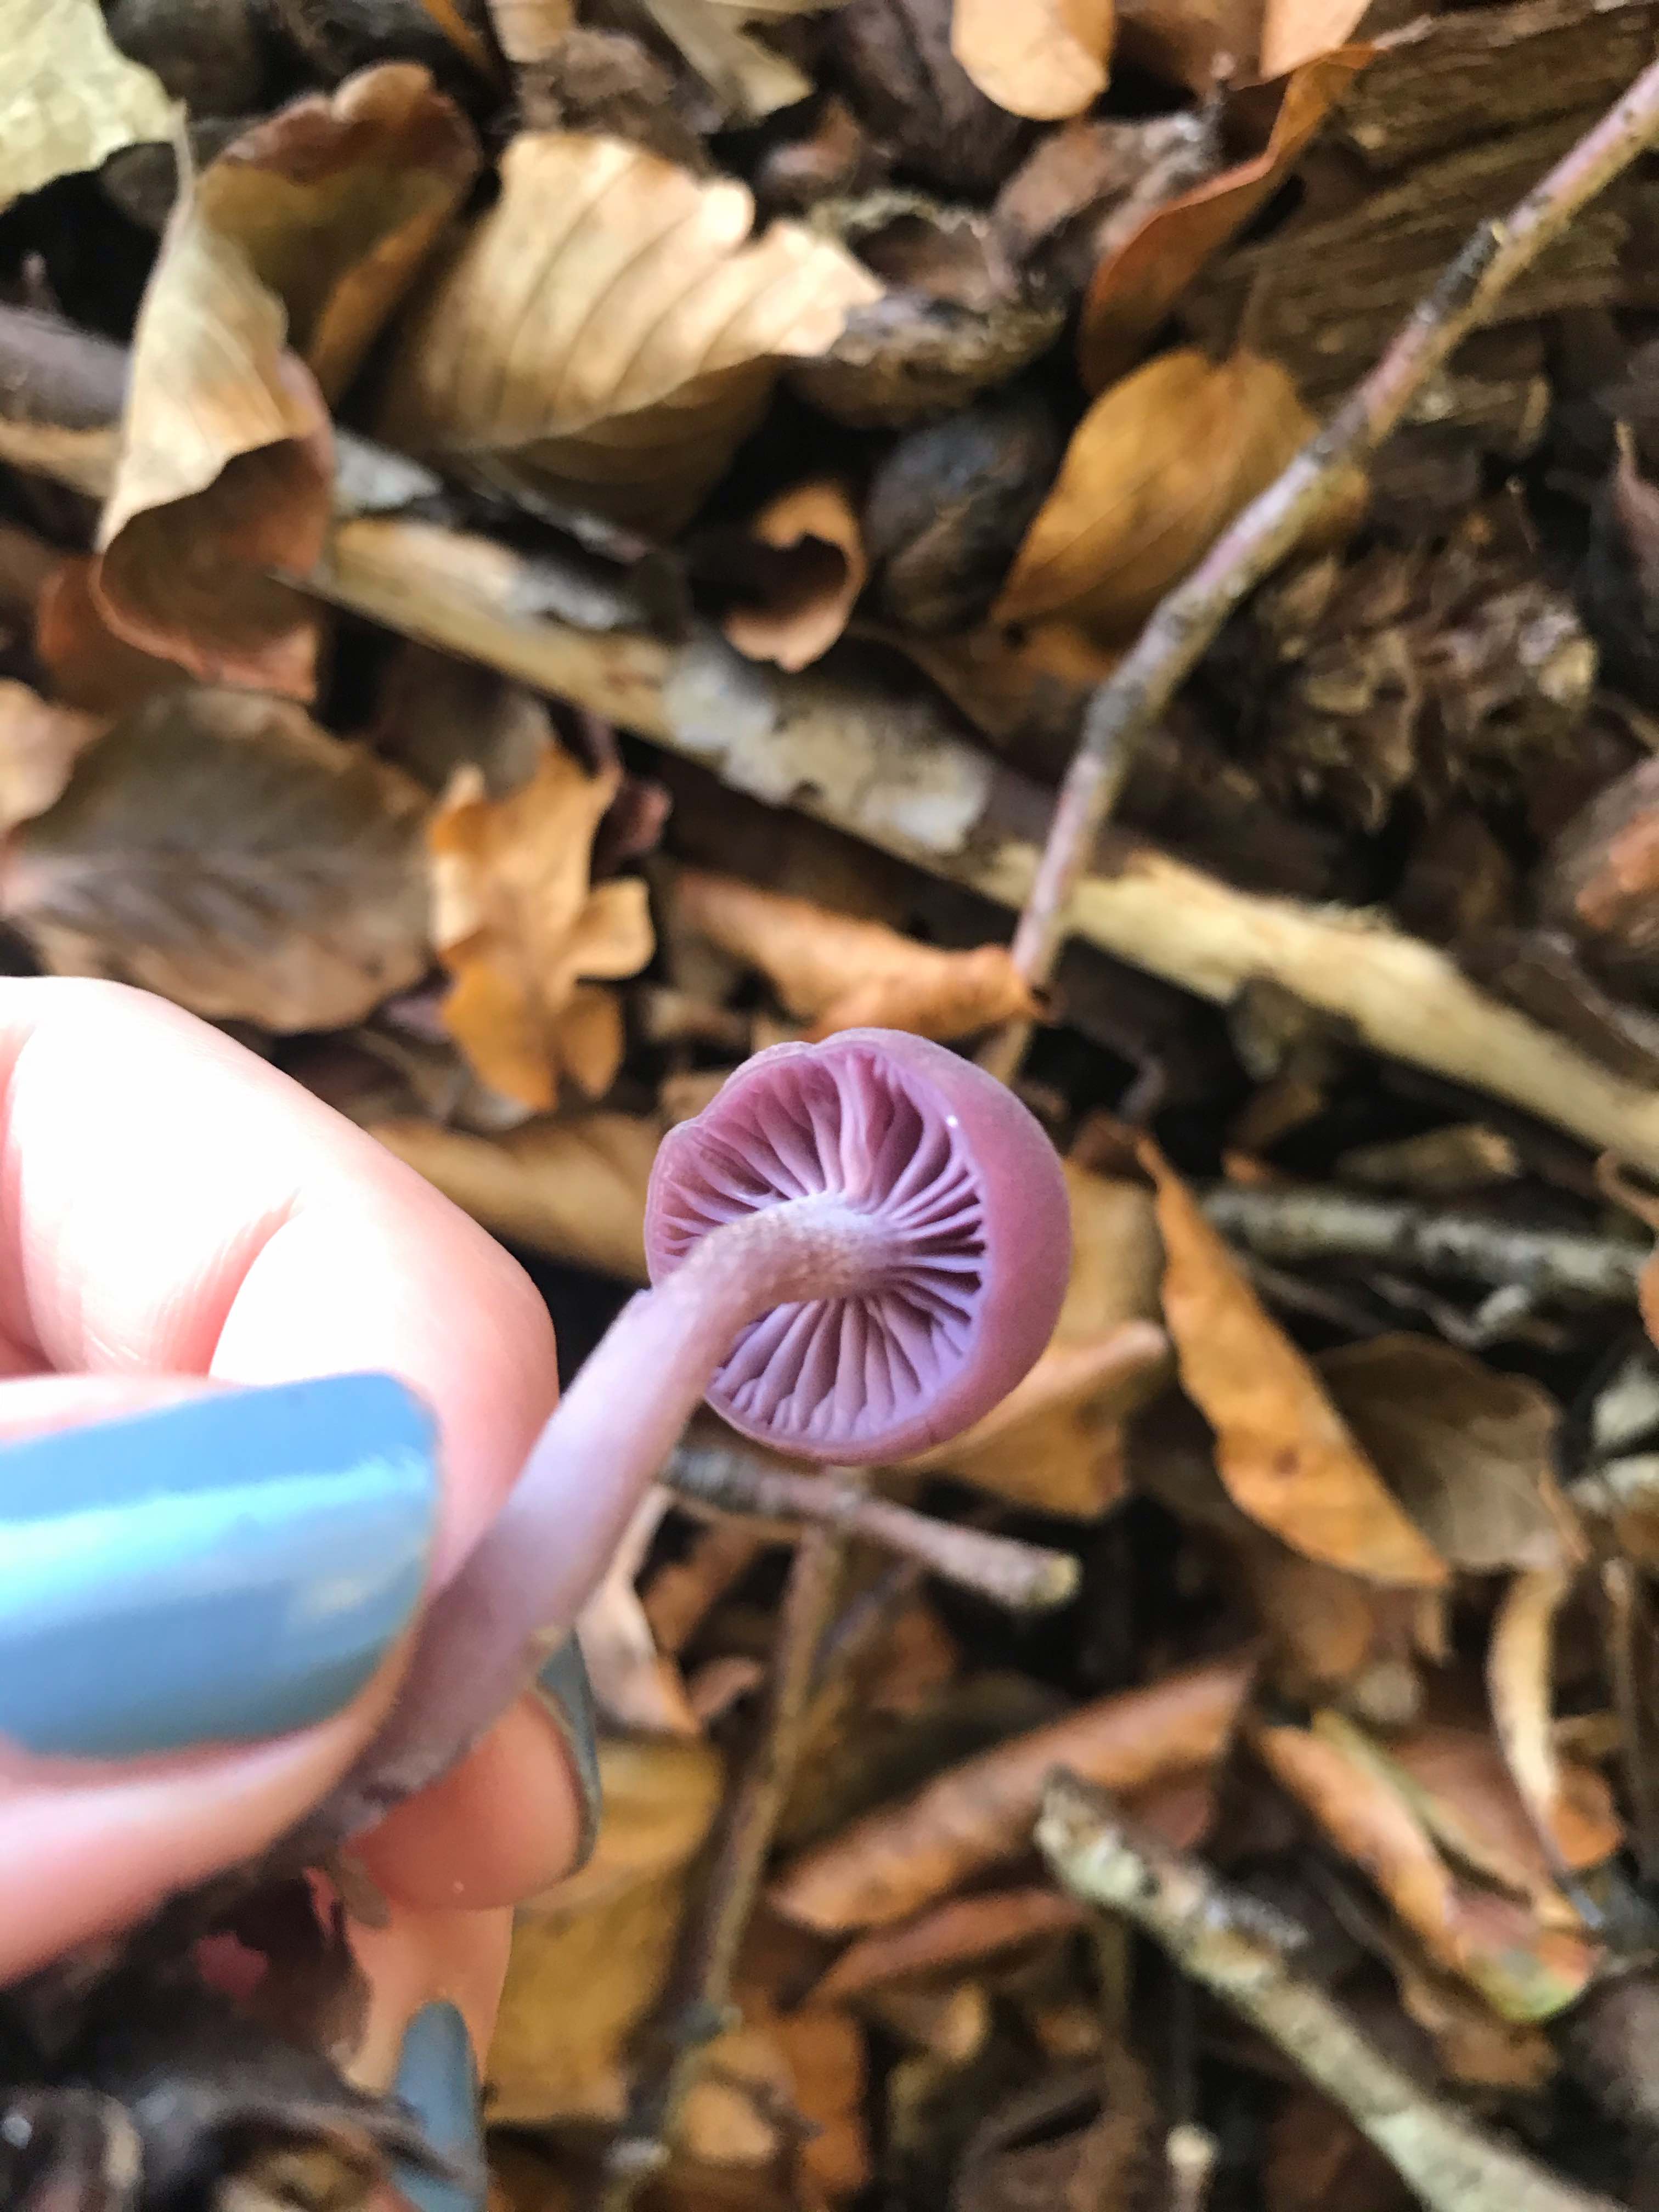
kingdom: Fungi
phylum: Basidiomycota
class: Agaricomycetes
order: Agaricales
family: Hydnangiaceae
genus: Laccaria
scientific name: Laccaria amethystina
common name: violet ametysthat
